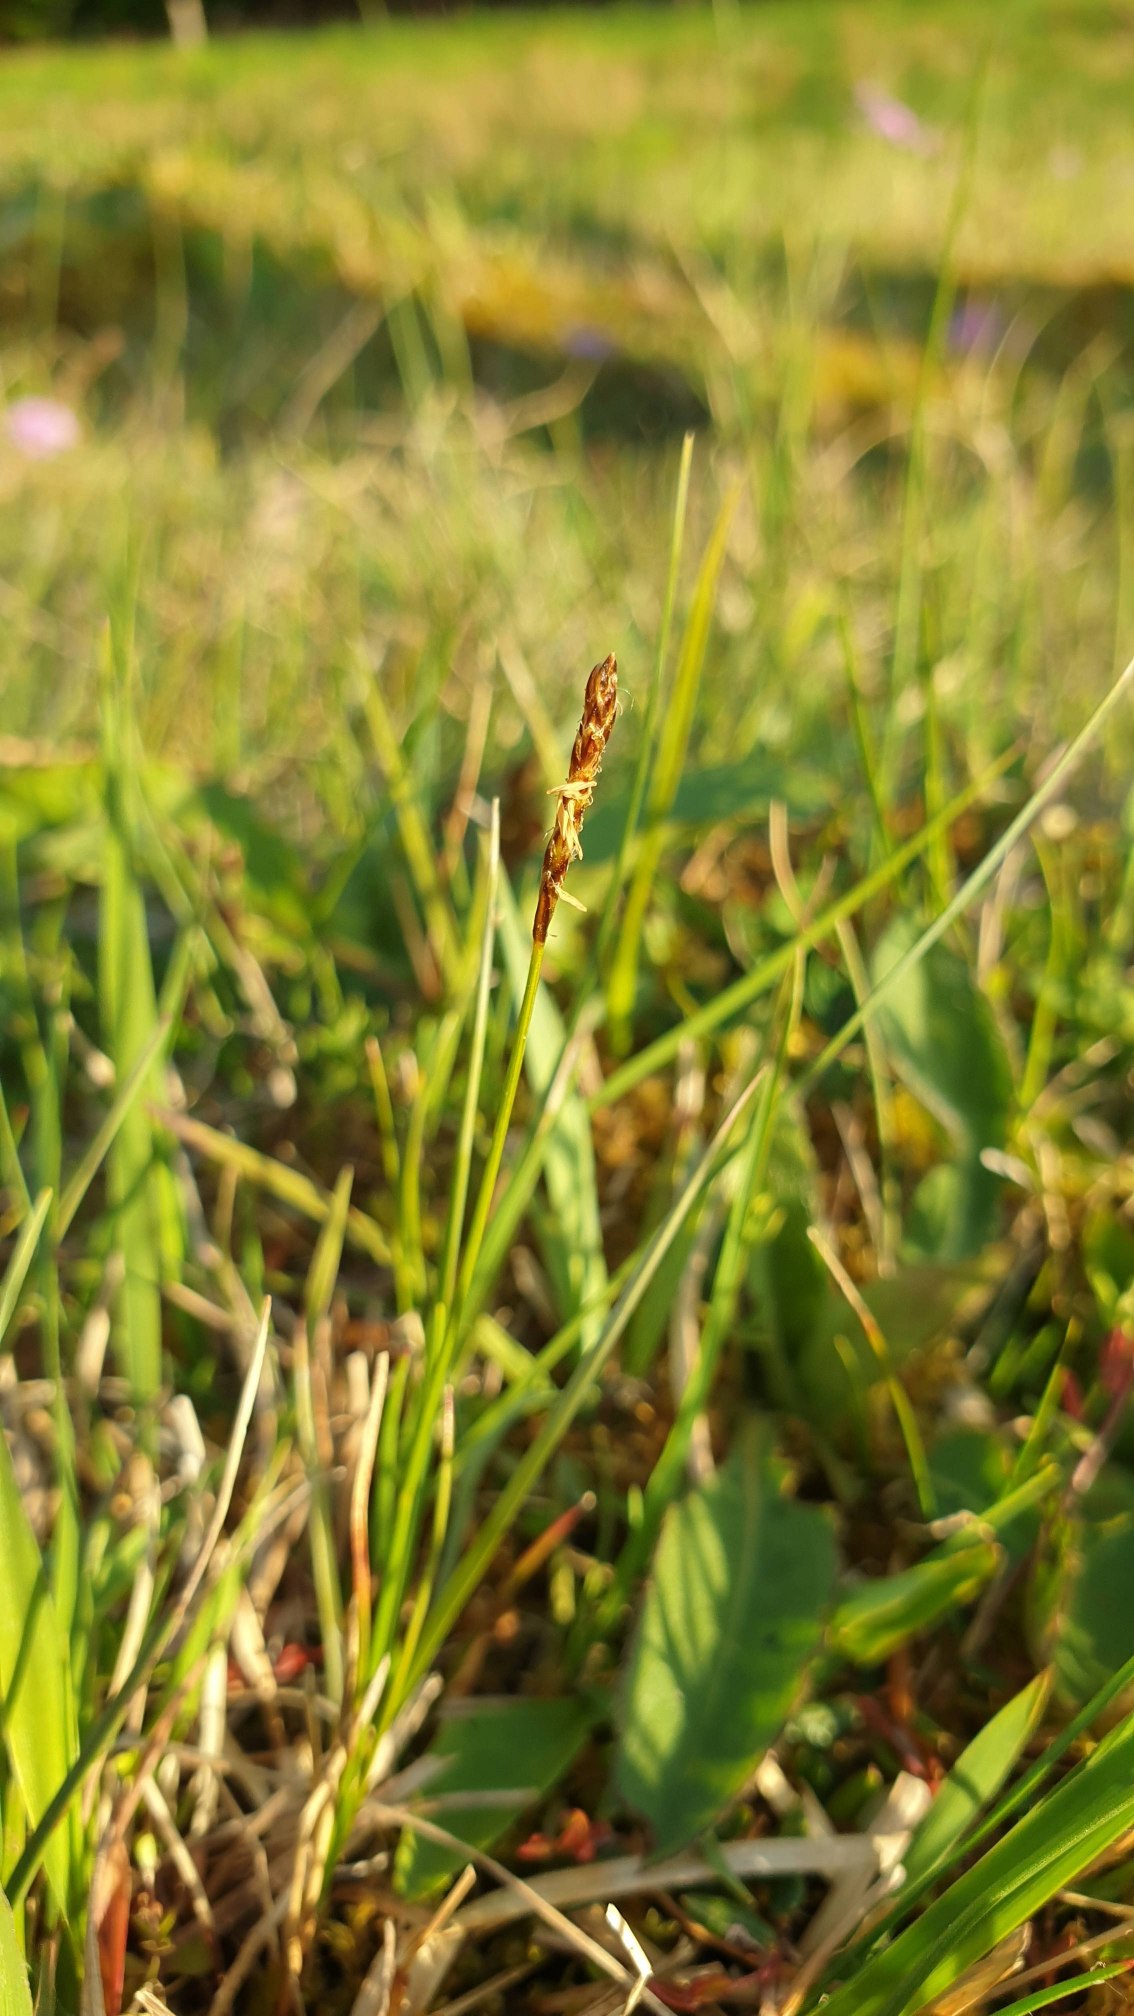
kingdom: Plantae
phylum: Tracheophyta
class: Liliopsida
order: Poales
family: Cyperaceae
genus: Carex
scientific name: Carex dioica
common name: Tvebo star
